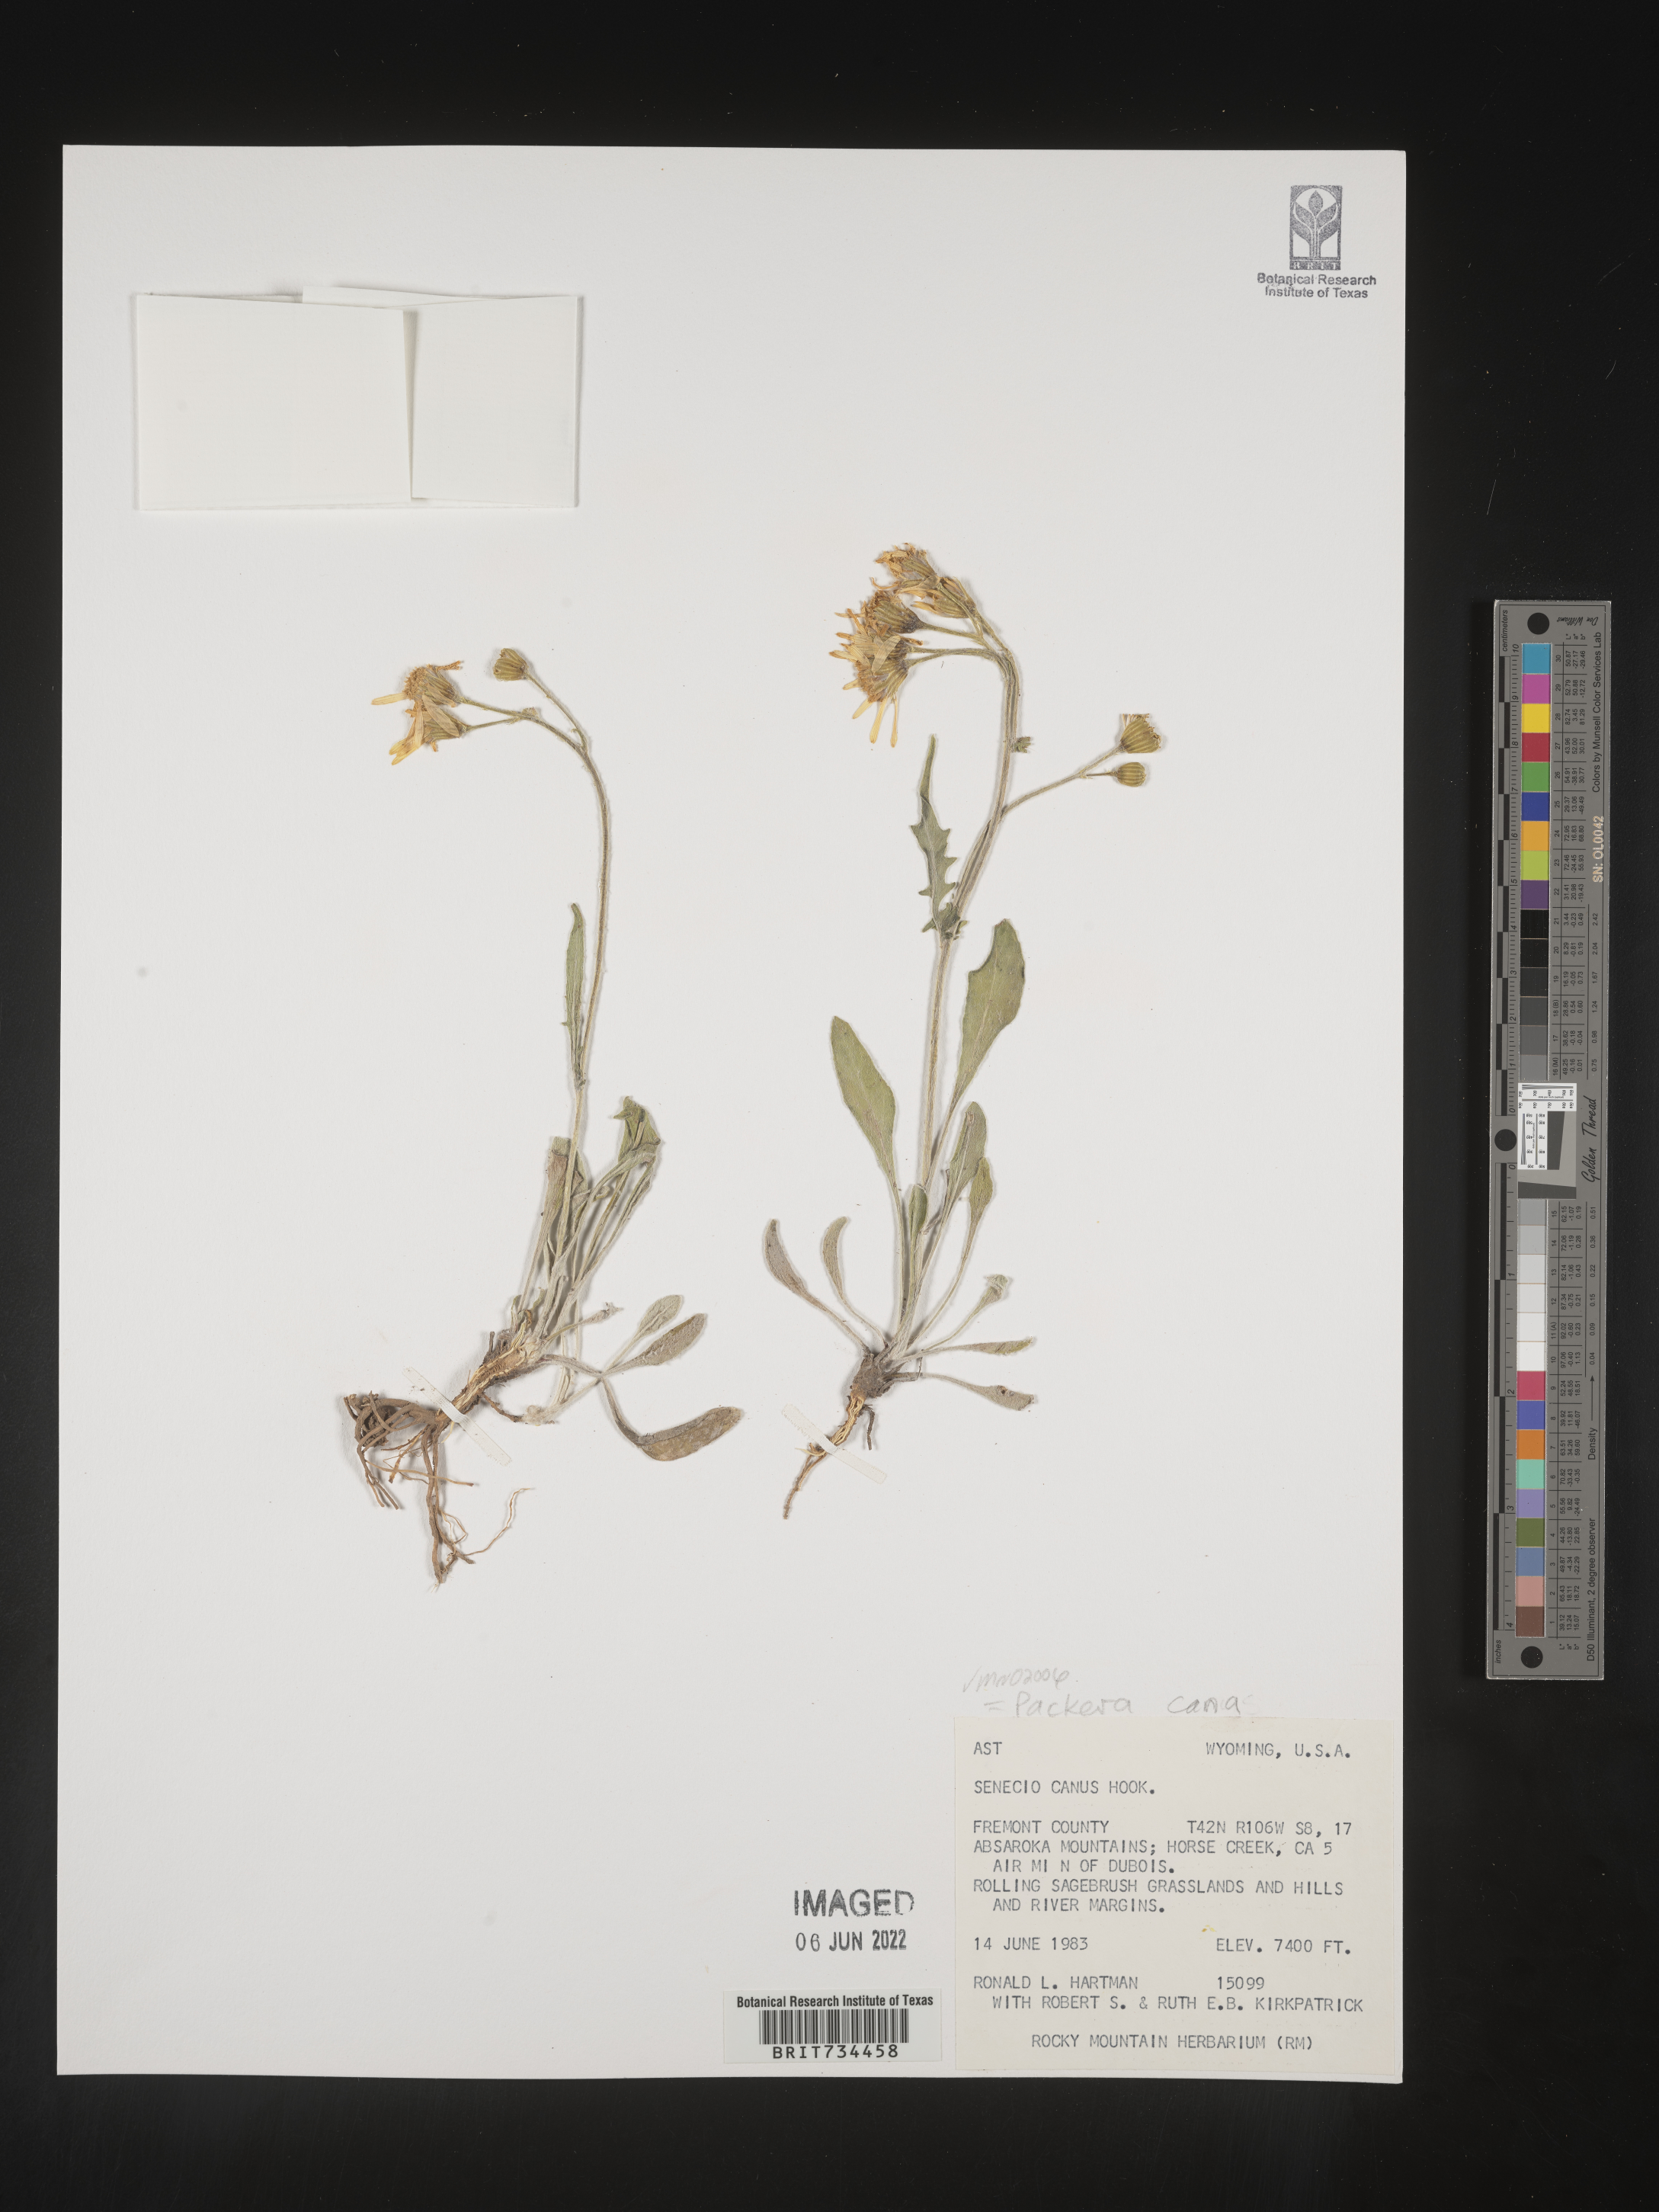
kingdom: Plantae
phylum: Tracheophyta
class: Magnoliopsida
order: Asterales
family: Asteraceae
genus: Packera
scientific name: Packera cana
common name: Woolly groundsel
